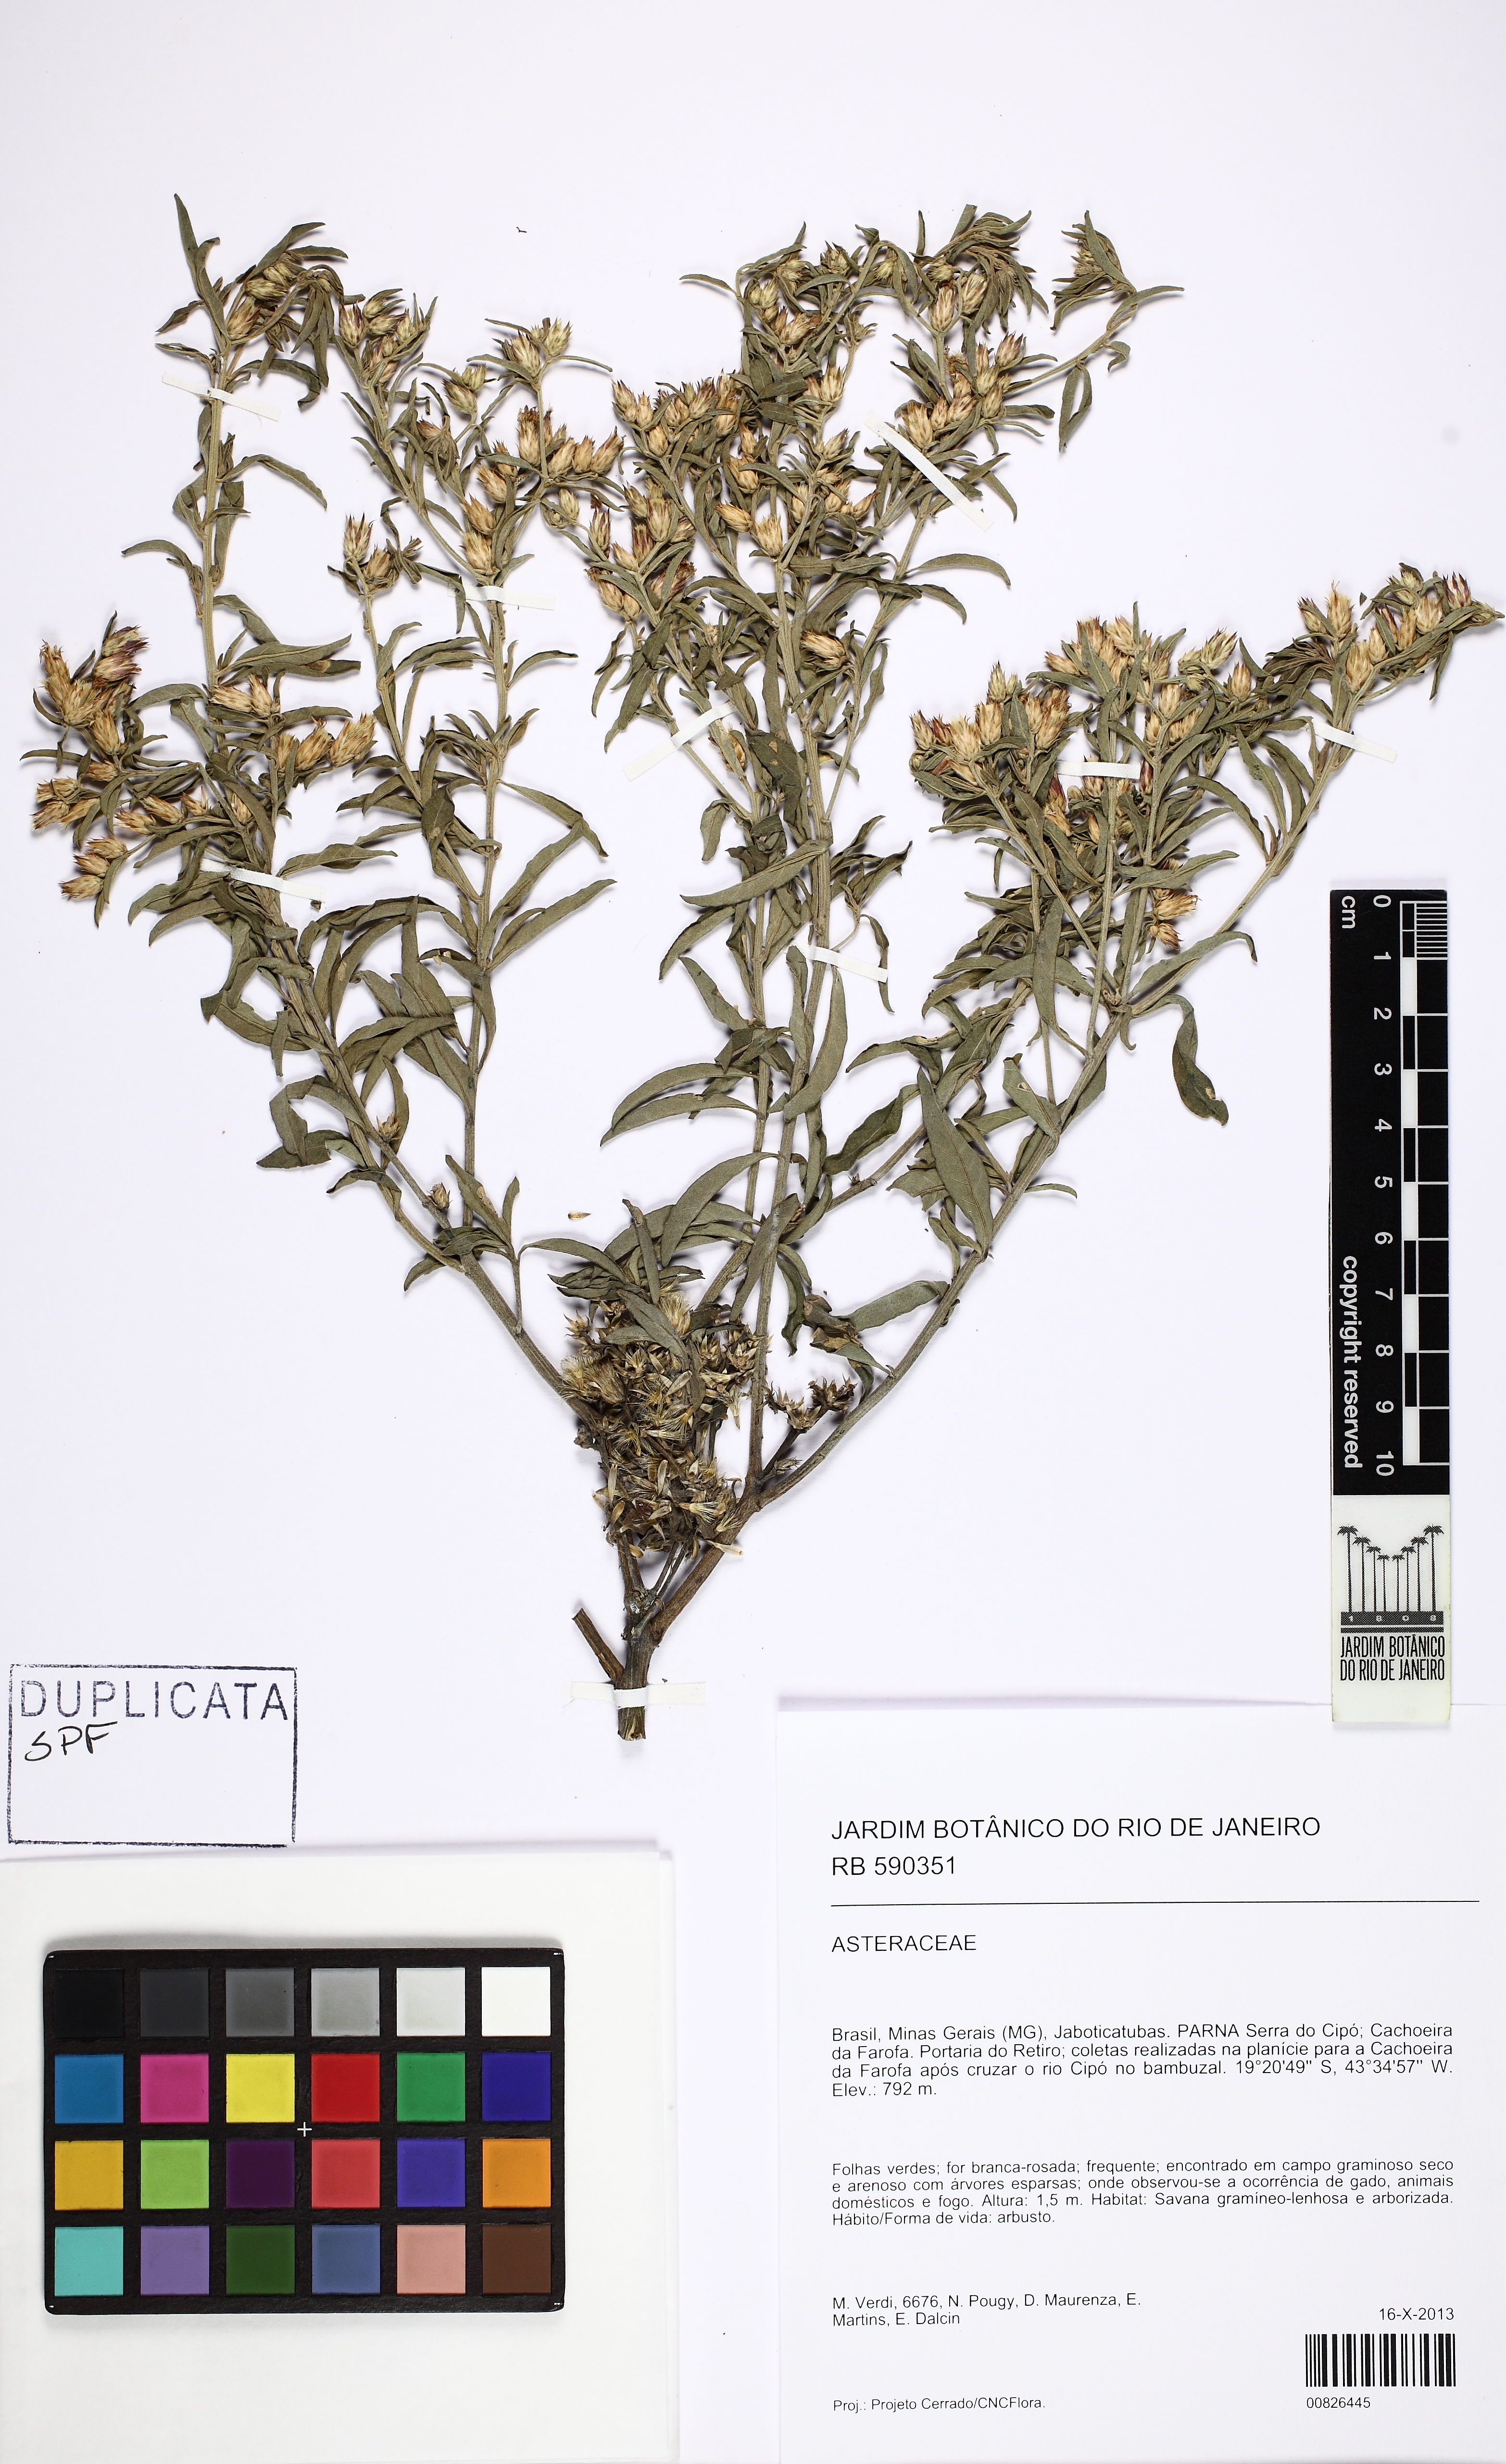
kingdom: Plantae
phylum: Tracheophyta
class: Magnoliopsida
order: Asterales
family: Asteraceae
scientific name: Asteraceae
